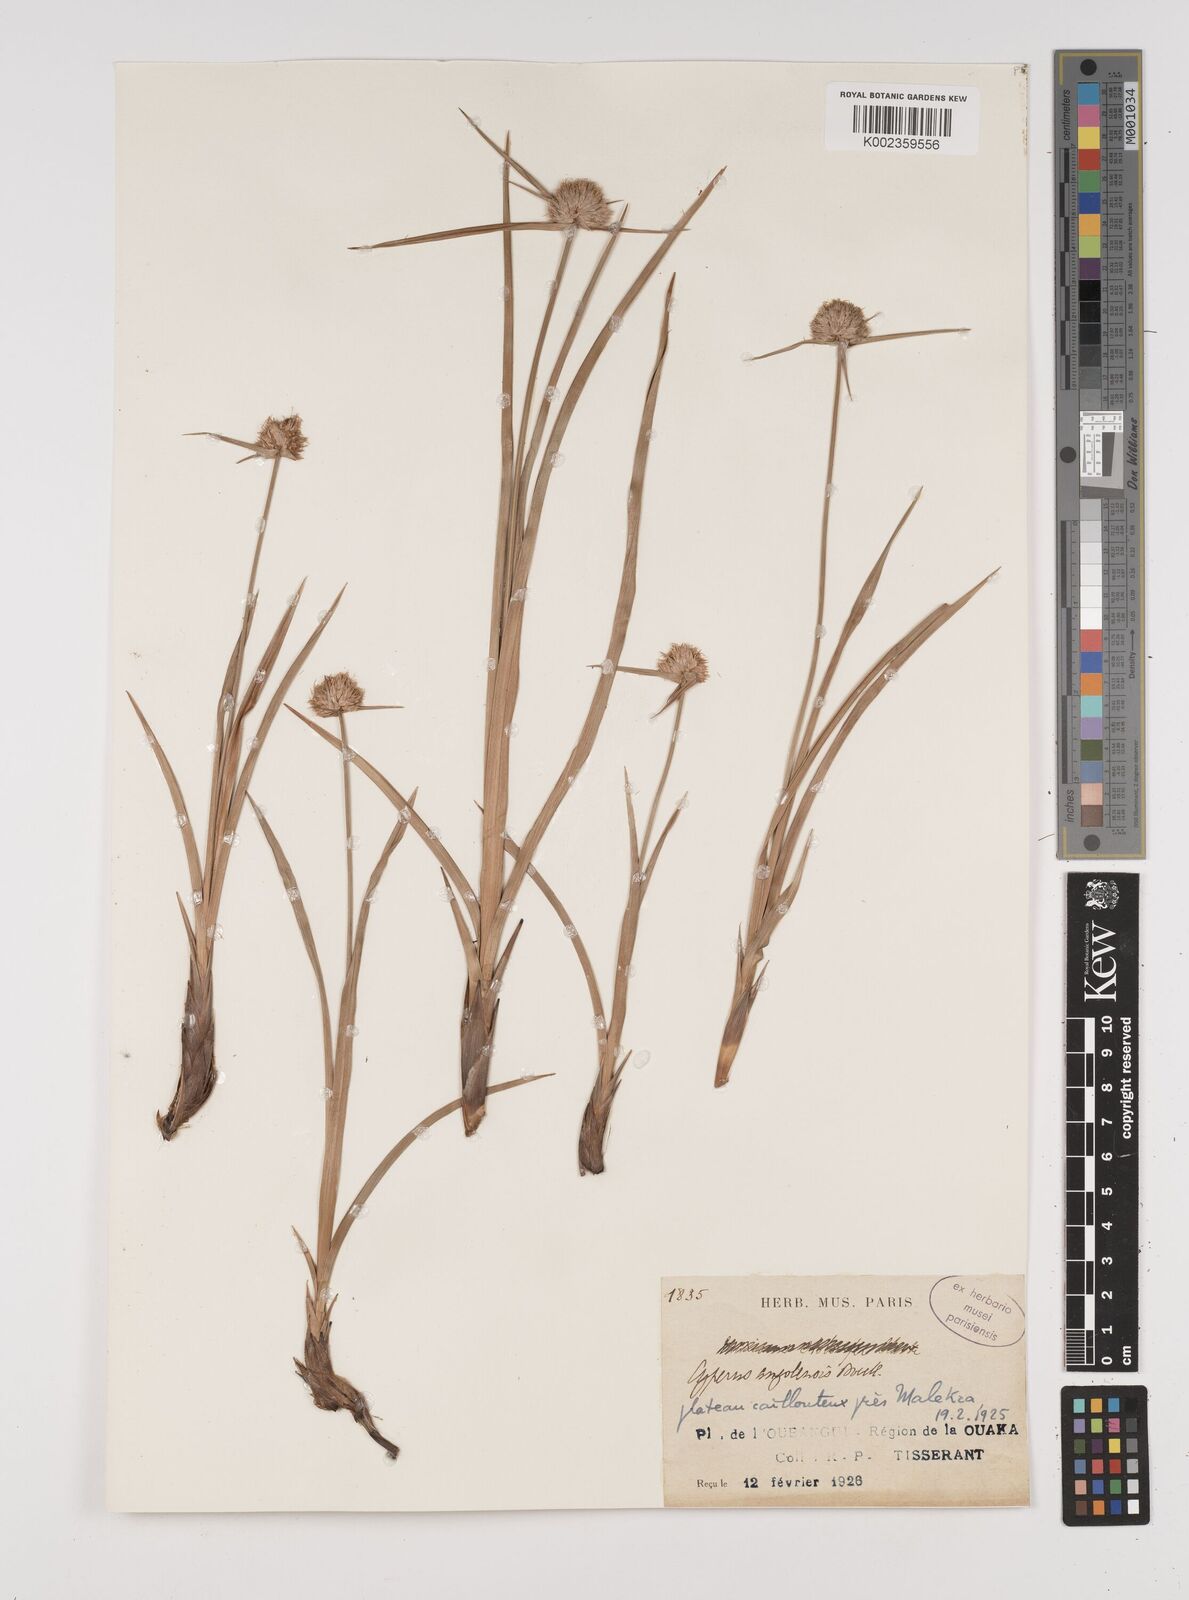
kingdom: Plantae
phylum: Tracheophyta
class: Liliopsida
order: Poales
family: Cyperaceae
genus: Cyperus
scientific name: Cyperus angolensis
